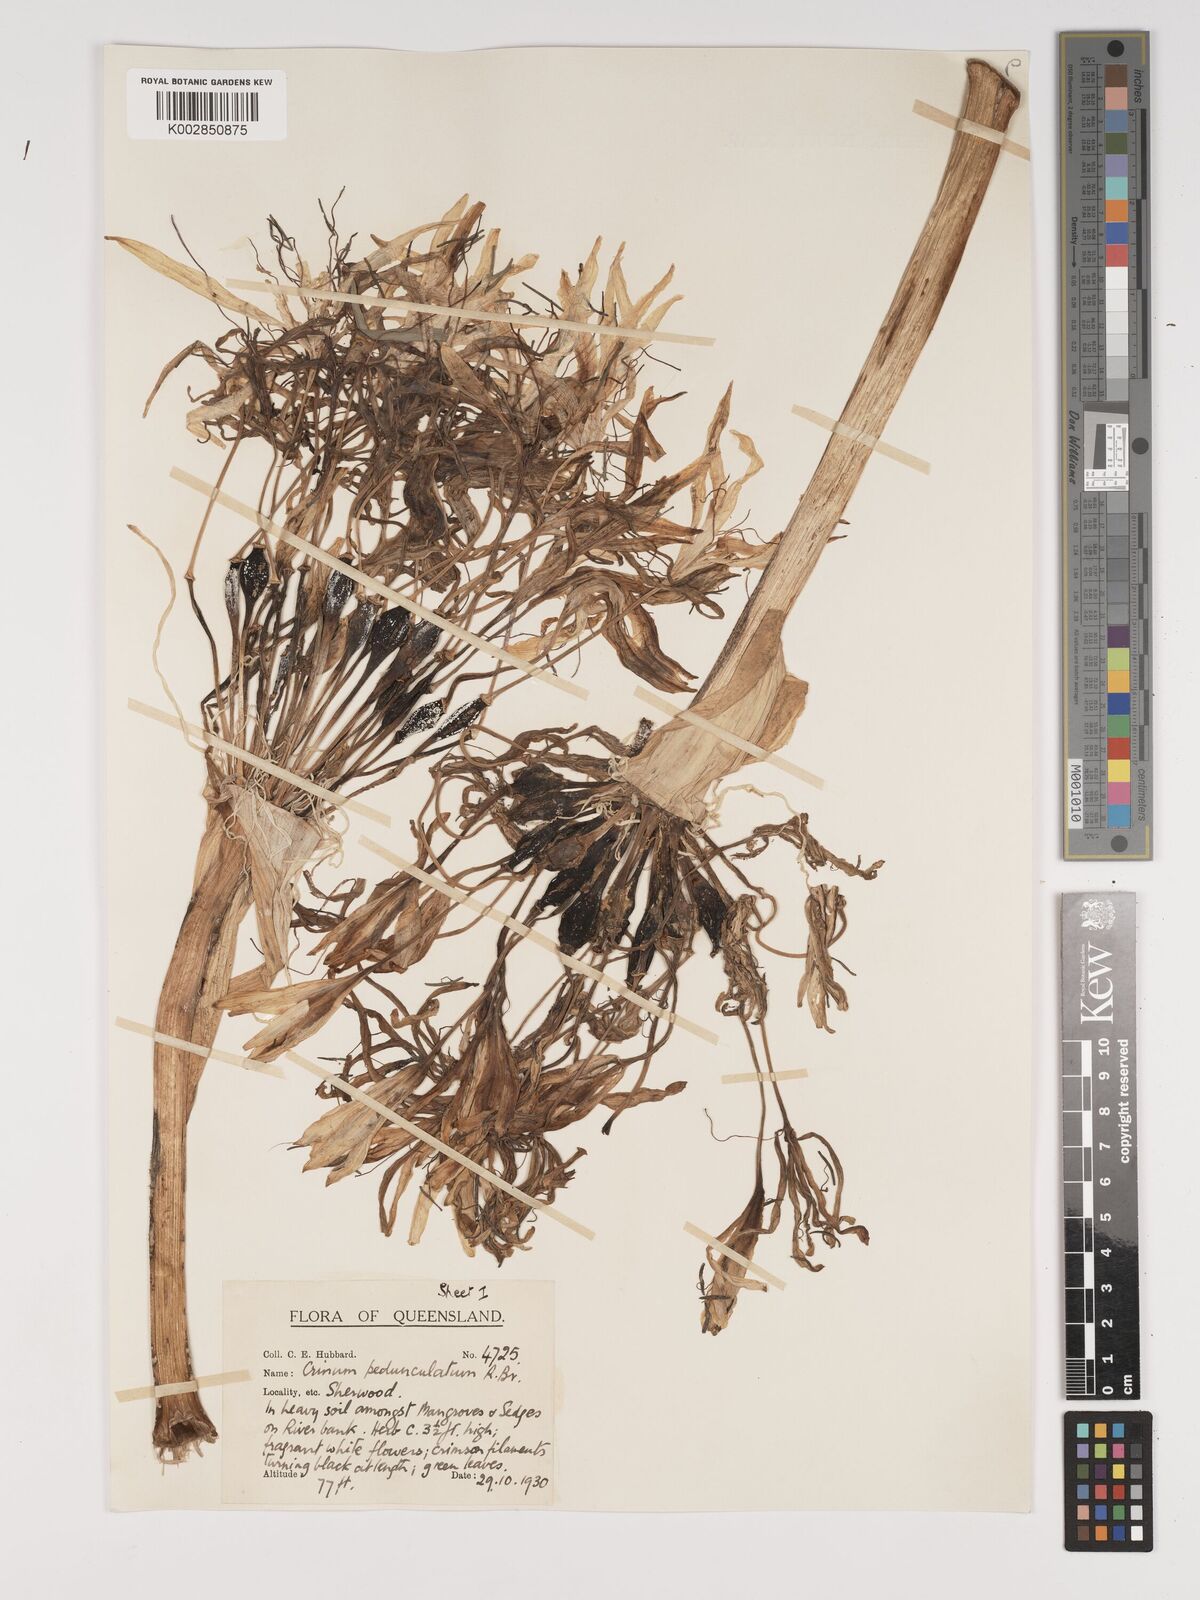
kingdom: Plantae
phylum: Tracheophyta
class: Liliopsida
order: Asparagales
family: Amaryllidaceae
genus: Crinum
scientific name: Crinum asiaticum
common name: Poisonbulb
